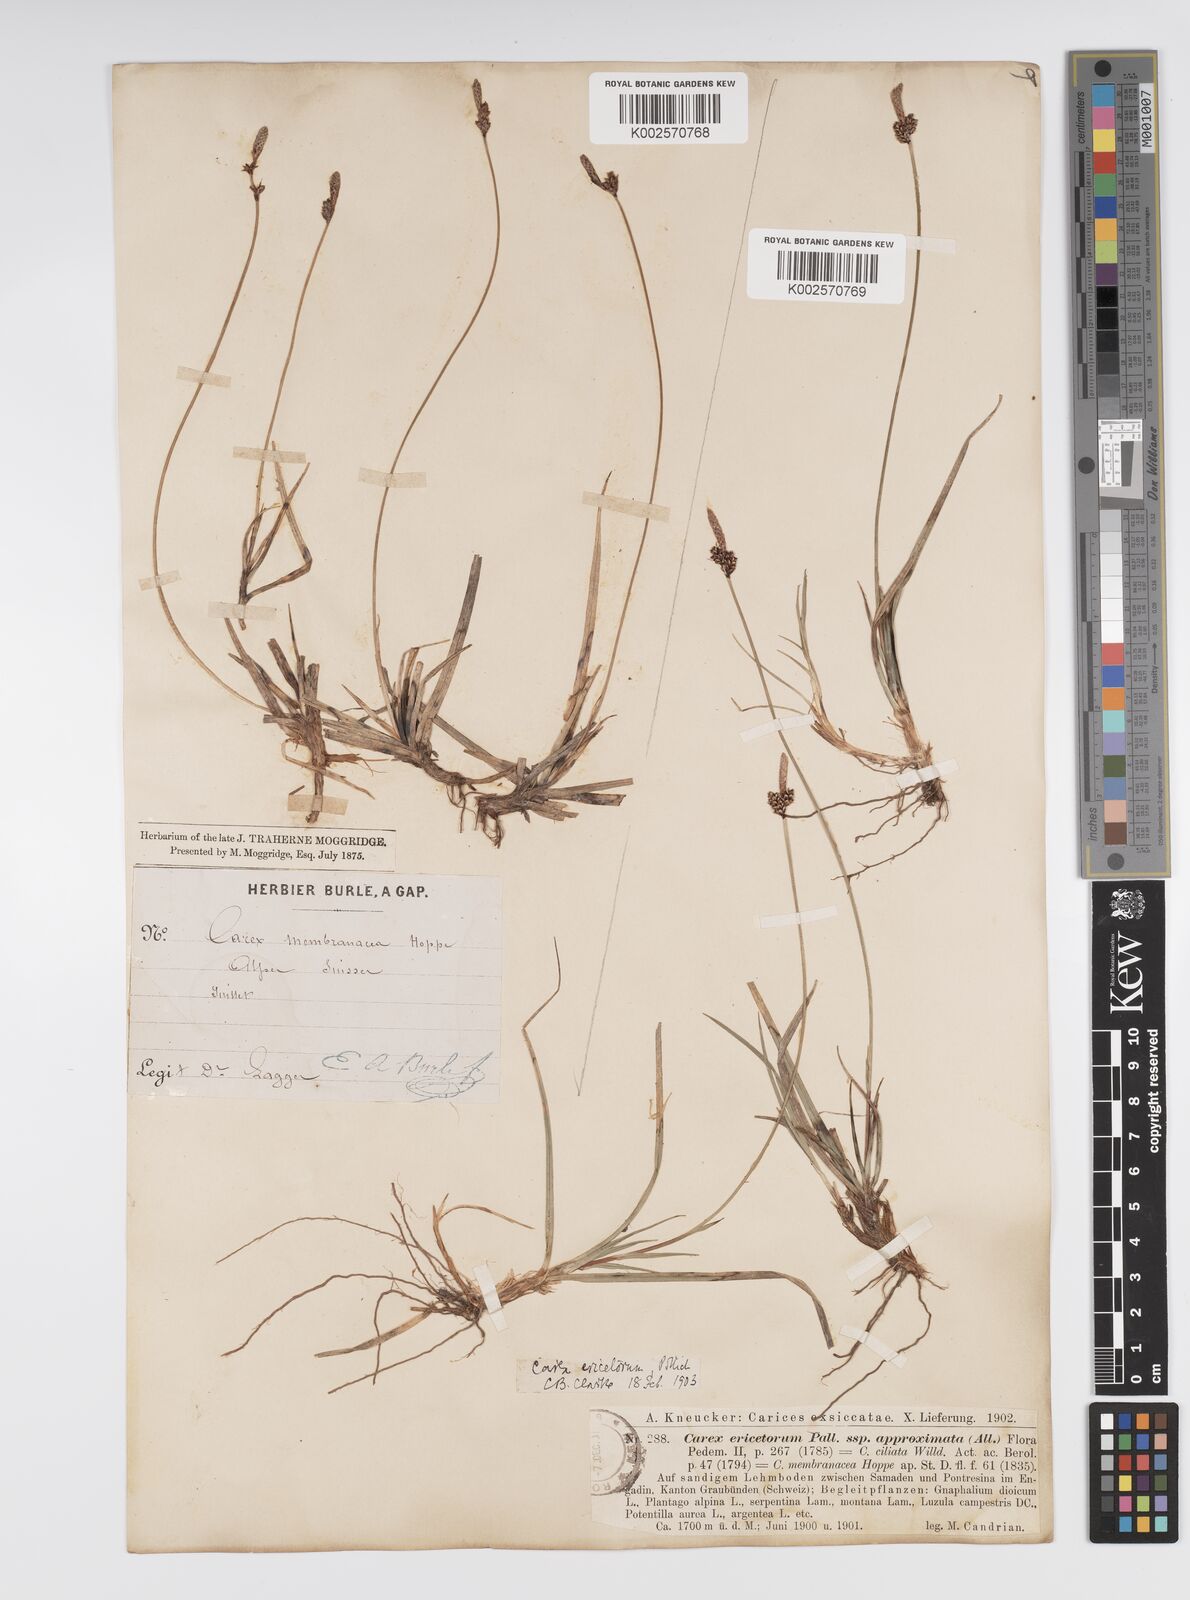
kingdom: Plantae
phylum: Tracheophyta
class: Liliopsida
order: Poales
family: Cyperaceae
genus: Carex
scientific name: Carex ericetorum
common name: Rare spring-sedge
